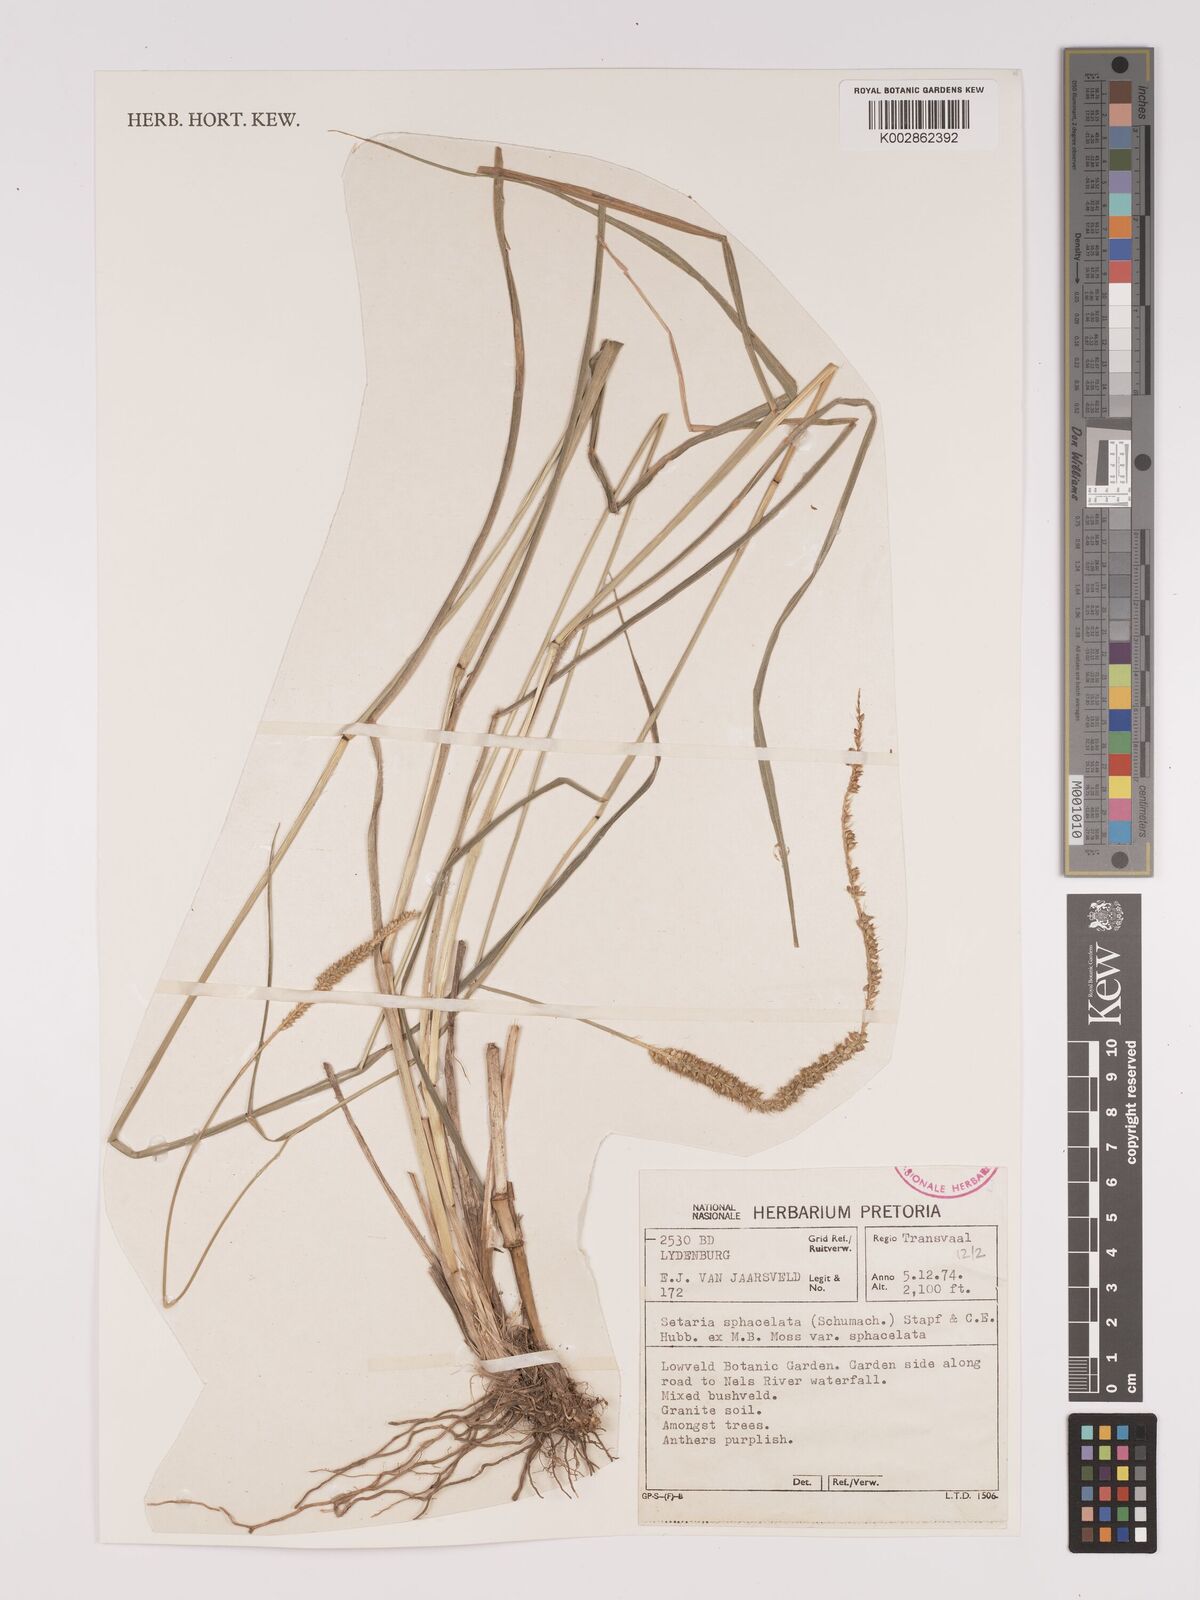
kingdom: Plantae
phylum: Tracheophyta
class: Liliopsida
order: Poales
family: Poaceae
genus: Setaria
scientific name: Setaria sphacelata
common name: African bristlegrass
